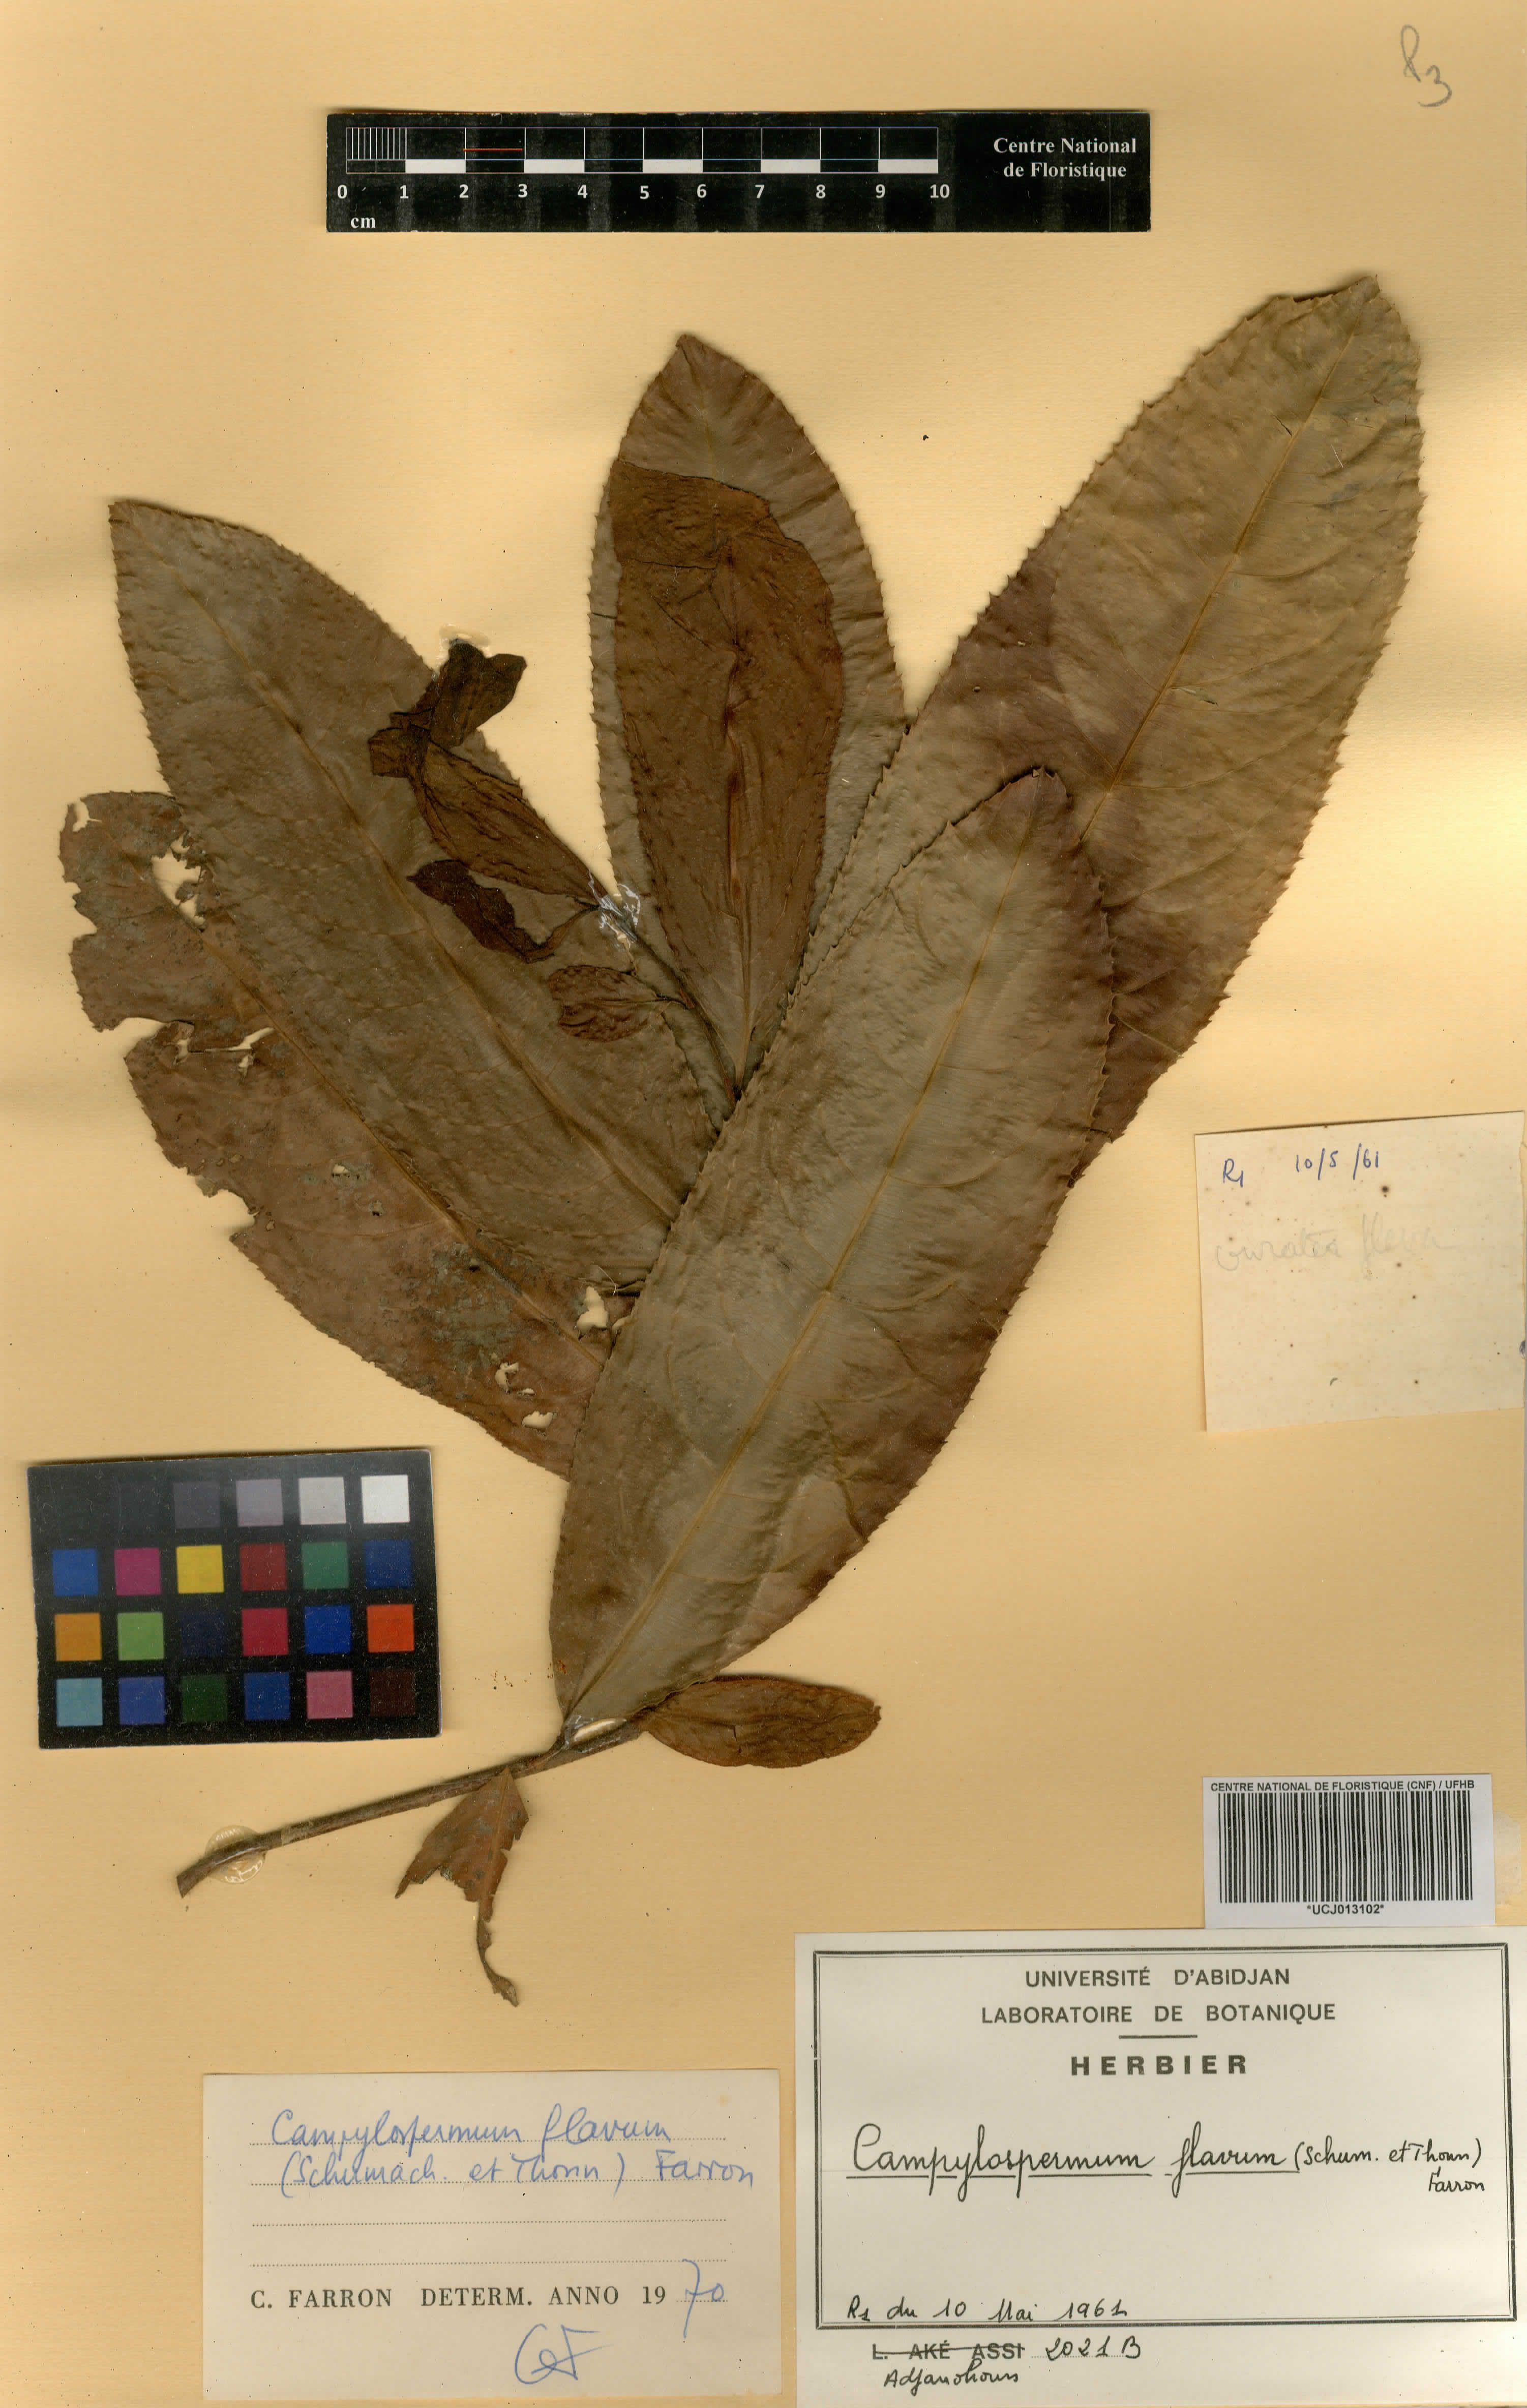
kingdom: Plantae
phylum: Tracheophyta
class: Magnoliopsida
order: Malpighiales
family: Ochnaceae
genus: Campylospermum
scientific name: Campylospermum flavum
